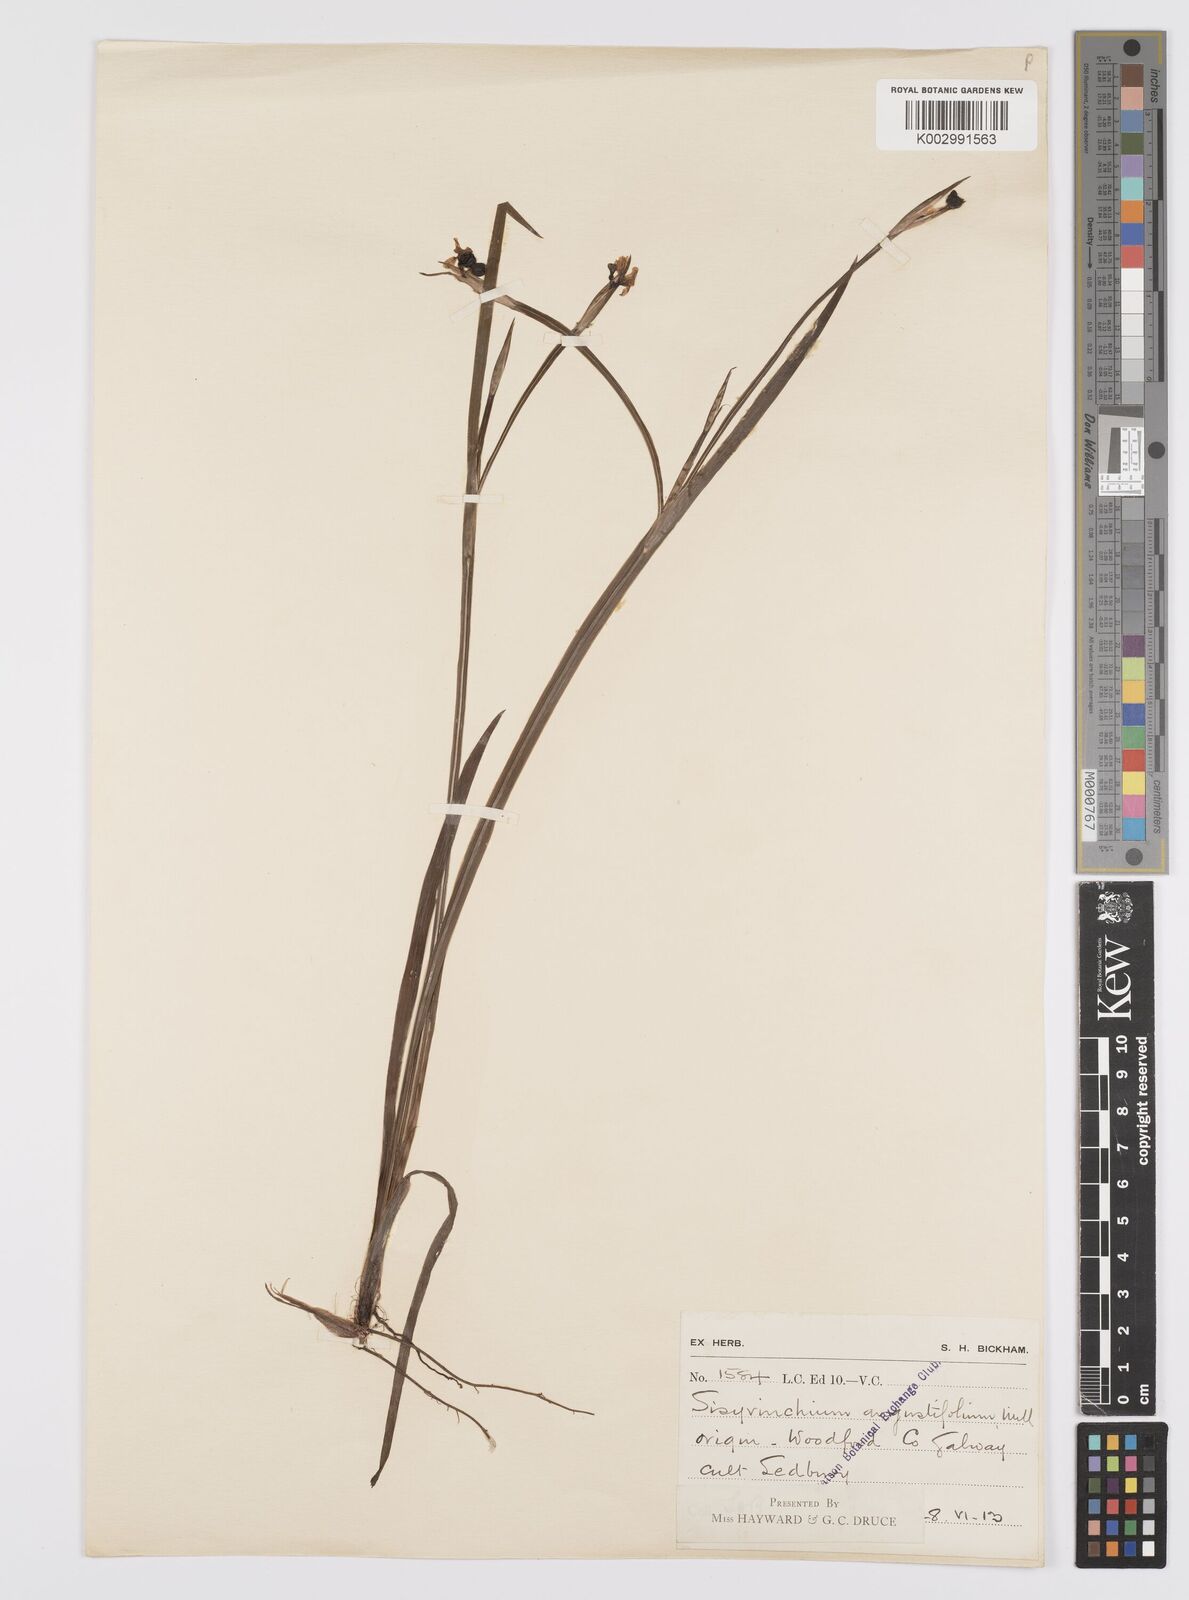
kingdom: Plantae
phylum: Tracheophyta
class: Liliopsida
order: Asparagales
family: Iridaceae
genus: Sisyrinchium
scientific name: Sisyrinchium angustifolium
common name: Narrow-leaf blue-eyed-grass
